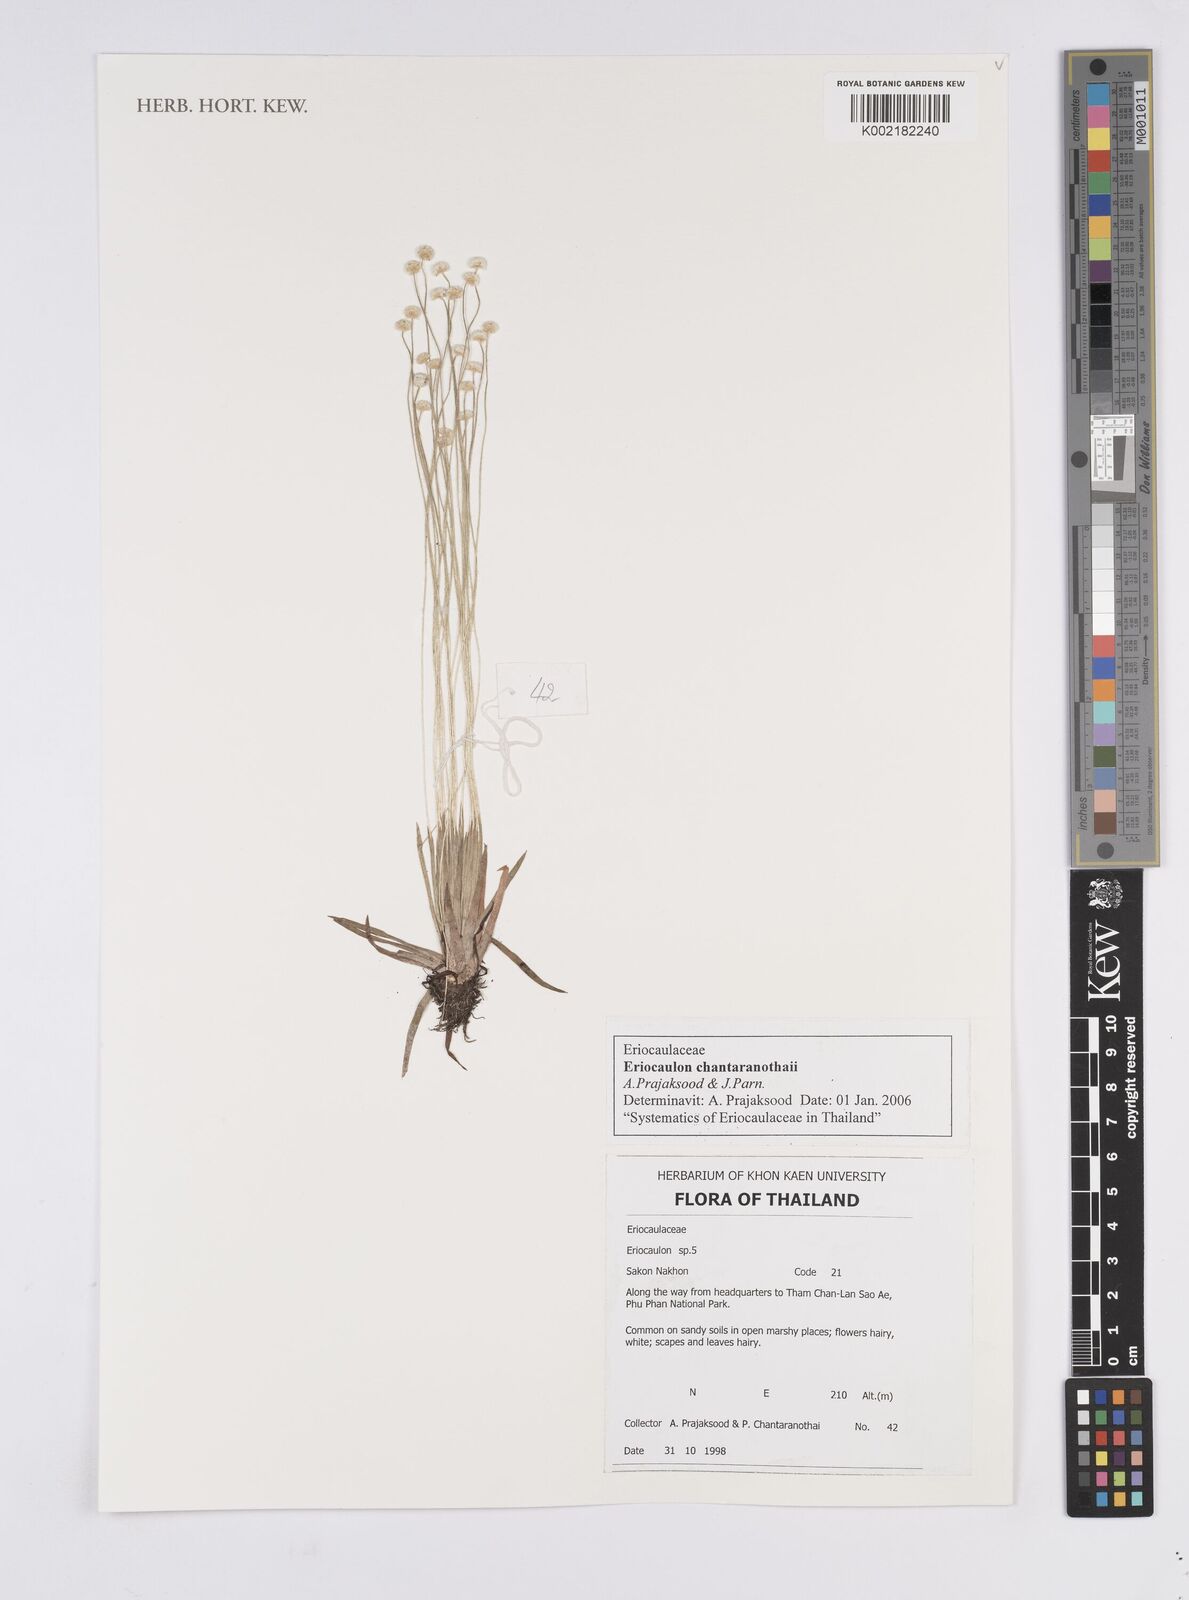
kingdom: Plantae
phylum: Tracheophyta
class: Liliopsida
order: Poales
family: Eriocaulaceae
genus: Eriocaulon
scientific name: Eriocaulon chantaranothaii
